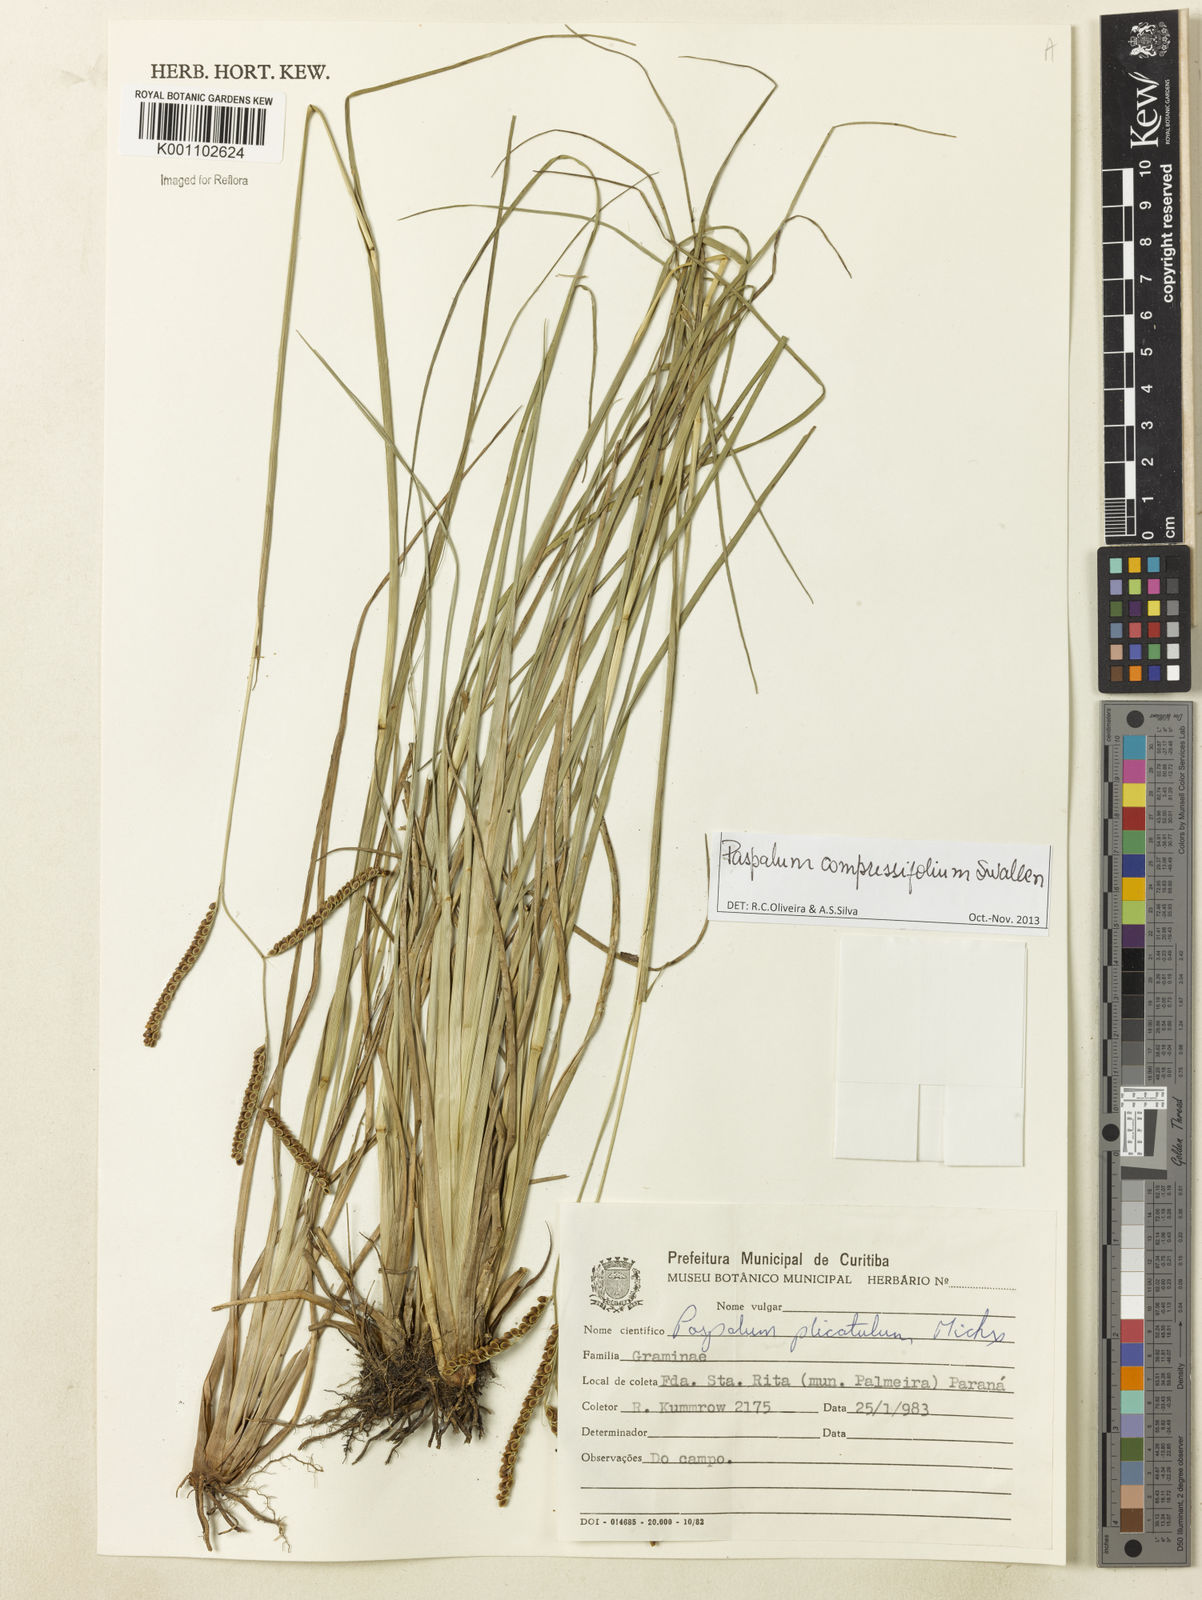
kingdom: Plantae
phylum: Tracheophyta
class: Liliopsida
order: Poales
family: Poaceae
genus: Paspalum
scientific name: Paspalum
